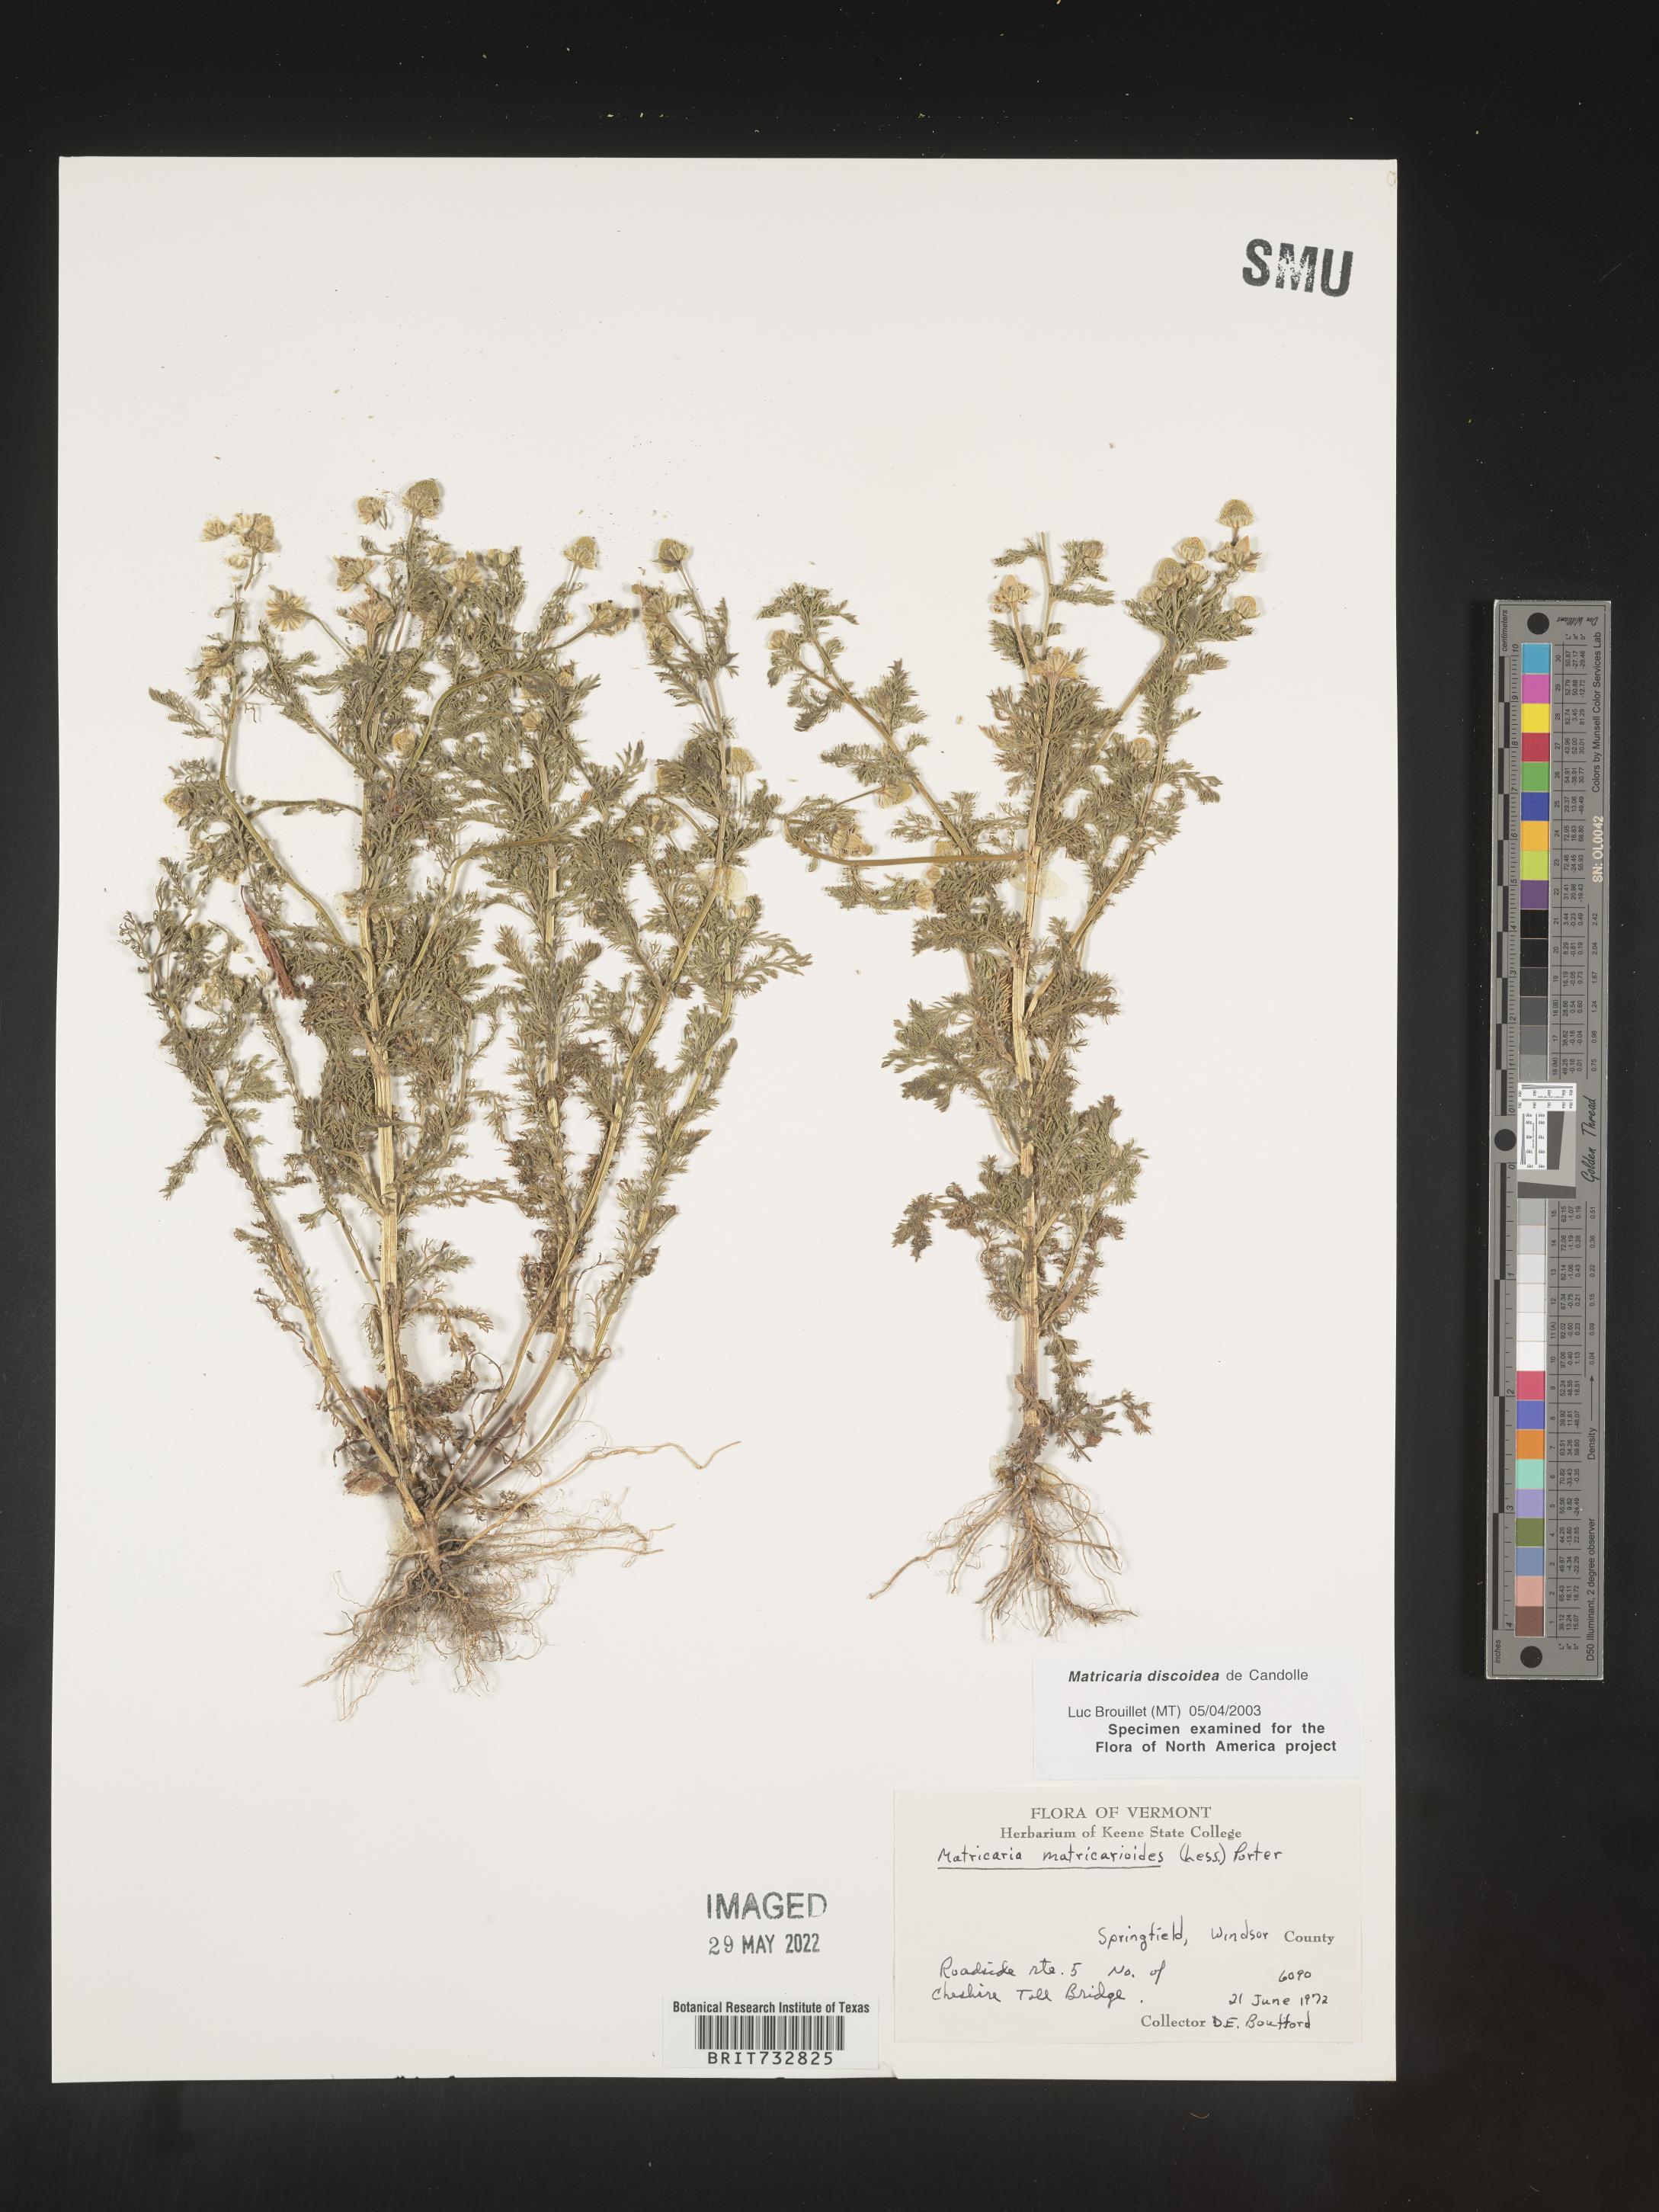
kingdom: Plantae
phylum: Tracheophyta
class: Magnoliopsida
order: Asterales
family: Asteraceae
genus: Matricaria
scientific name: Matricaria discoidea
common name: Disc mayweed
